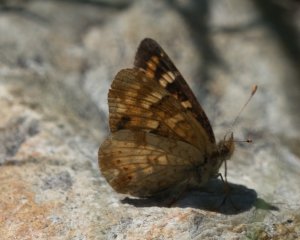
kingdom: Animalia
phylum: Arthropoda
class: Insecta
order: Lepidoptera
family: Nymphalidae
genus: Phyciodes
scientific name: Phyciodes tharos
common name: Field Crescent
